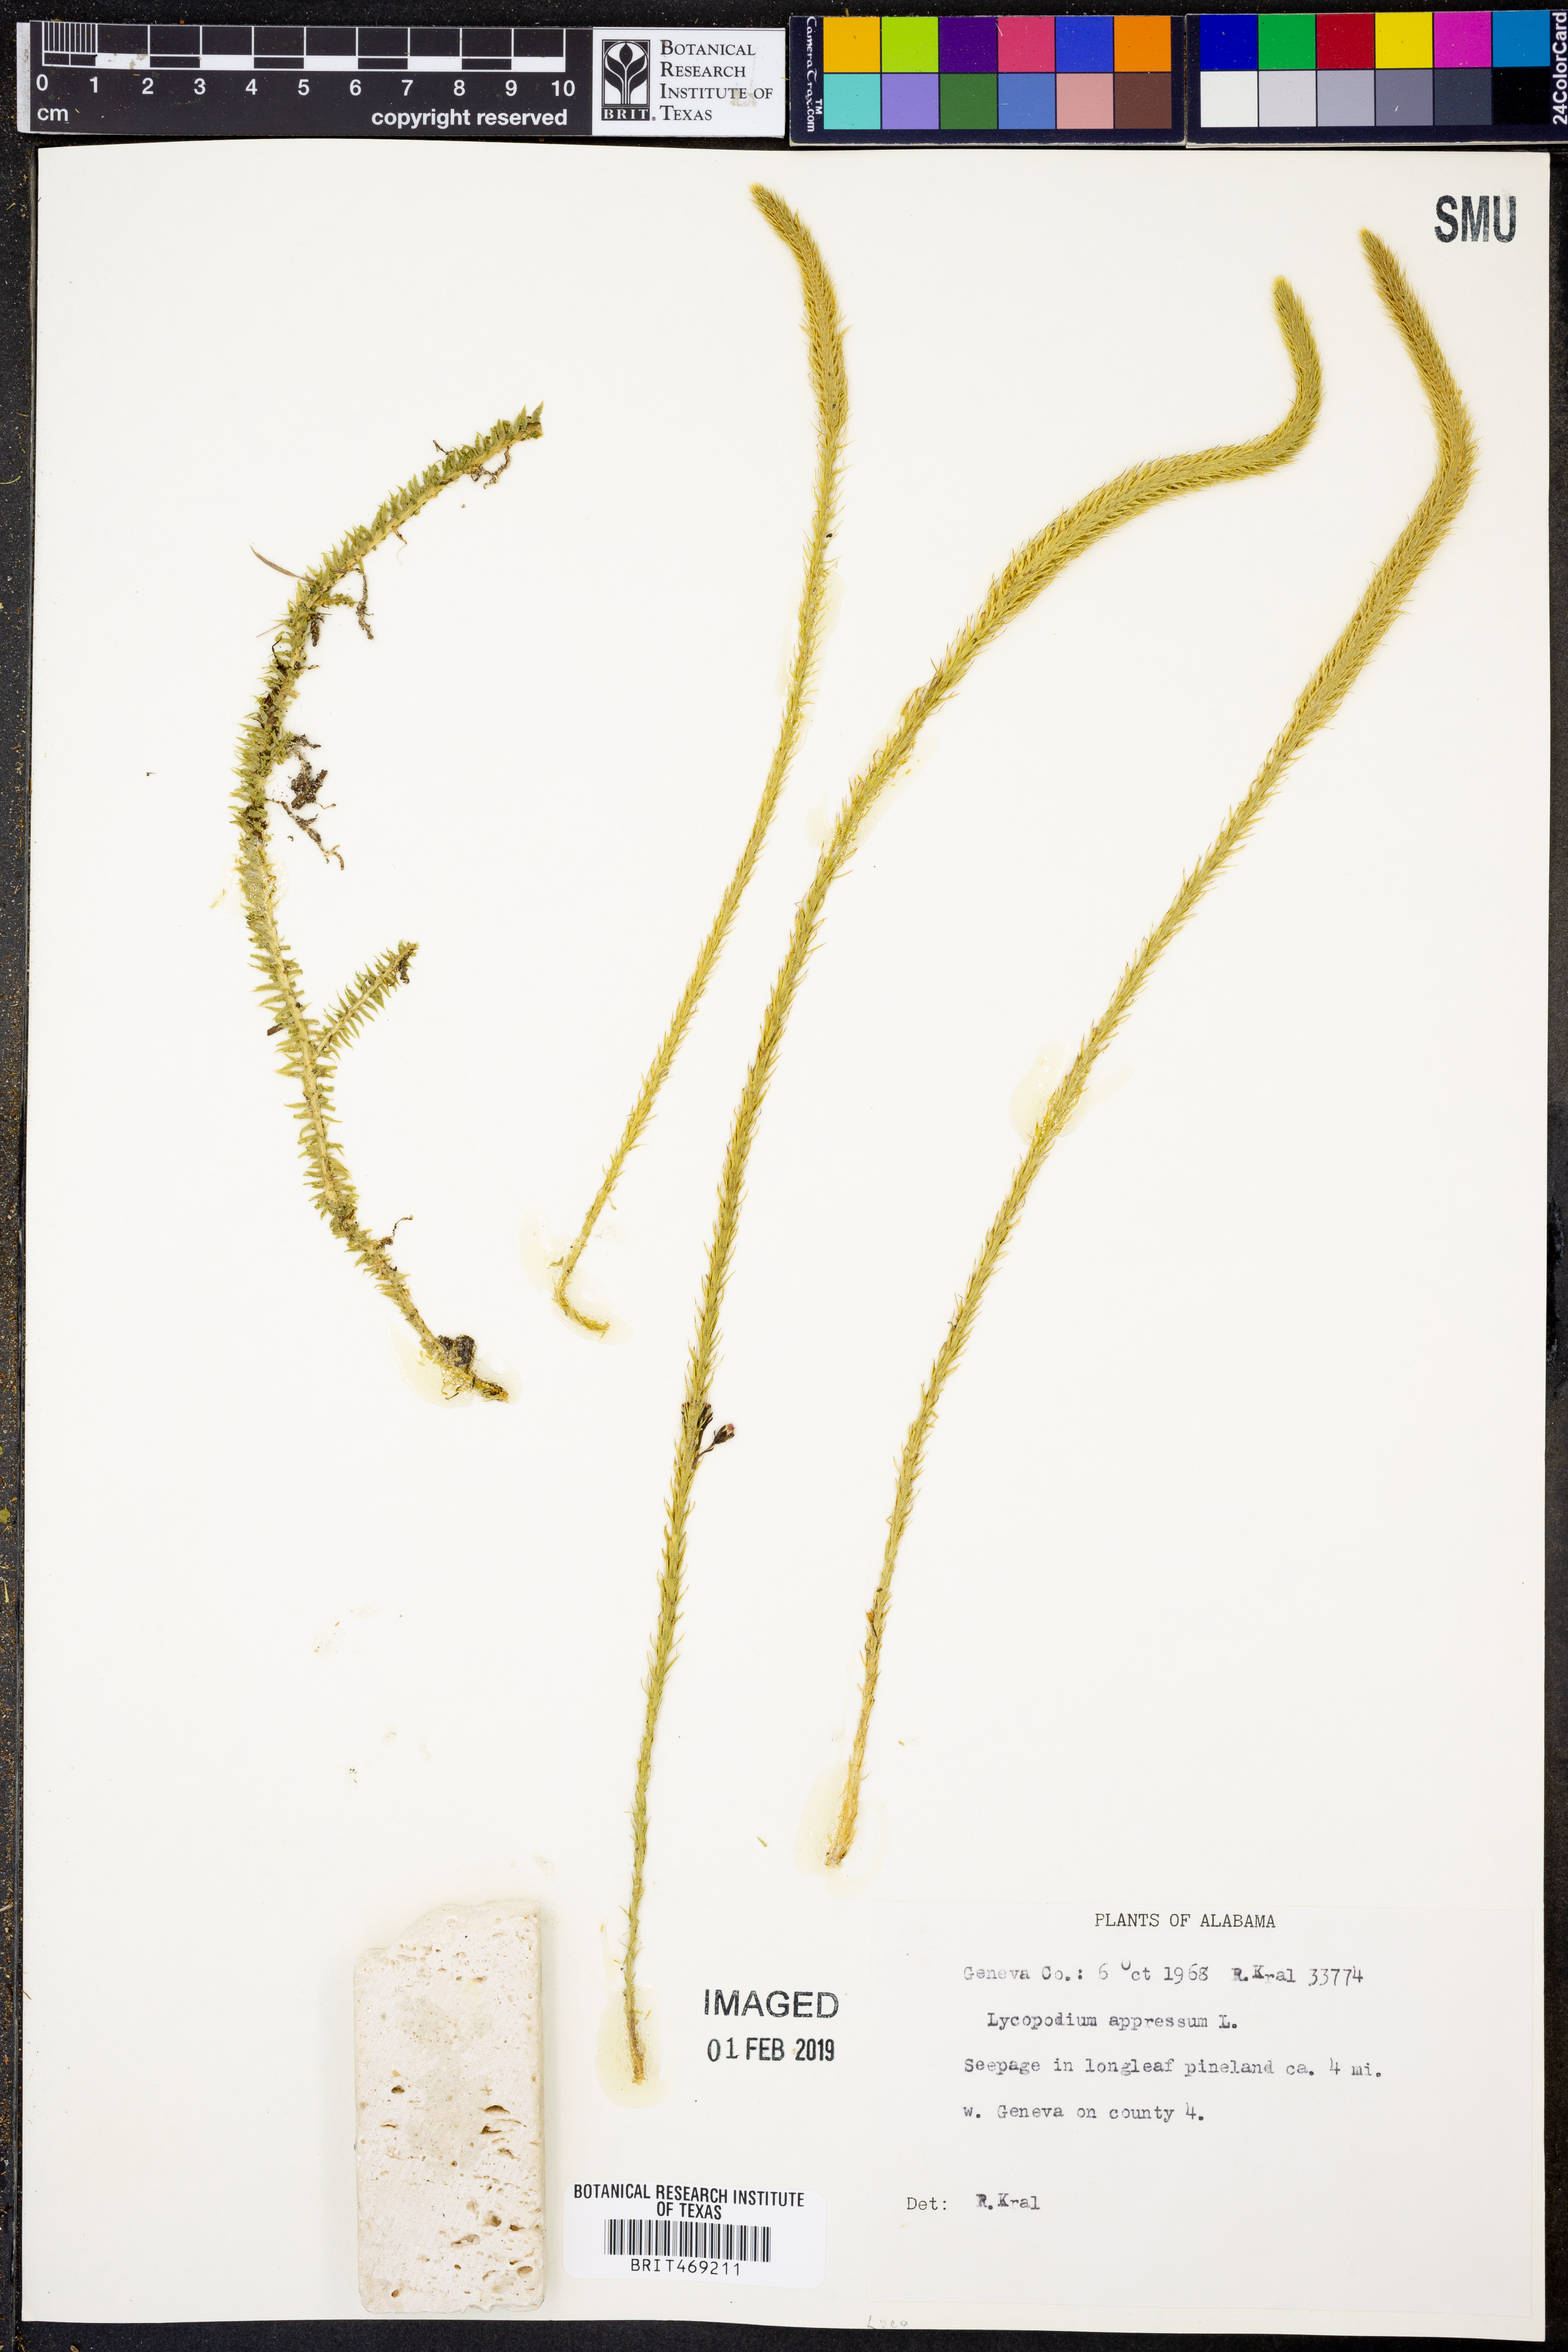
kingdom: Plantae
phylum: Tracheophyta
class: Lycopodiopsida
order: Lycopodiales
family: Lycopodiaceae
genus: Lycopodiella
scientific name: Lycopodiella appressa
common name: Appressed bog clubmoss
